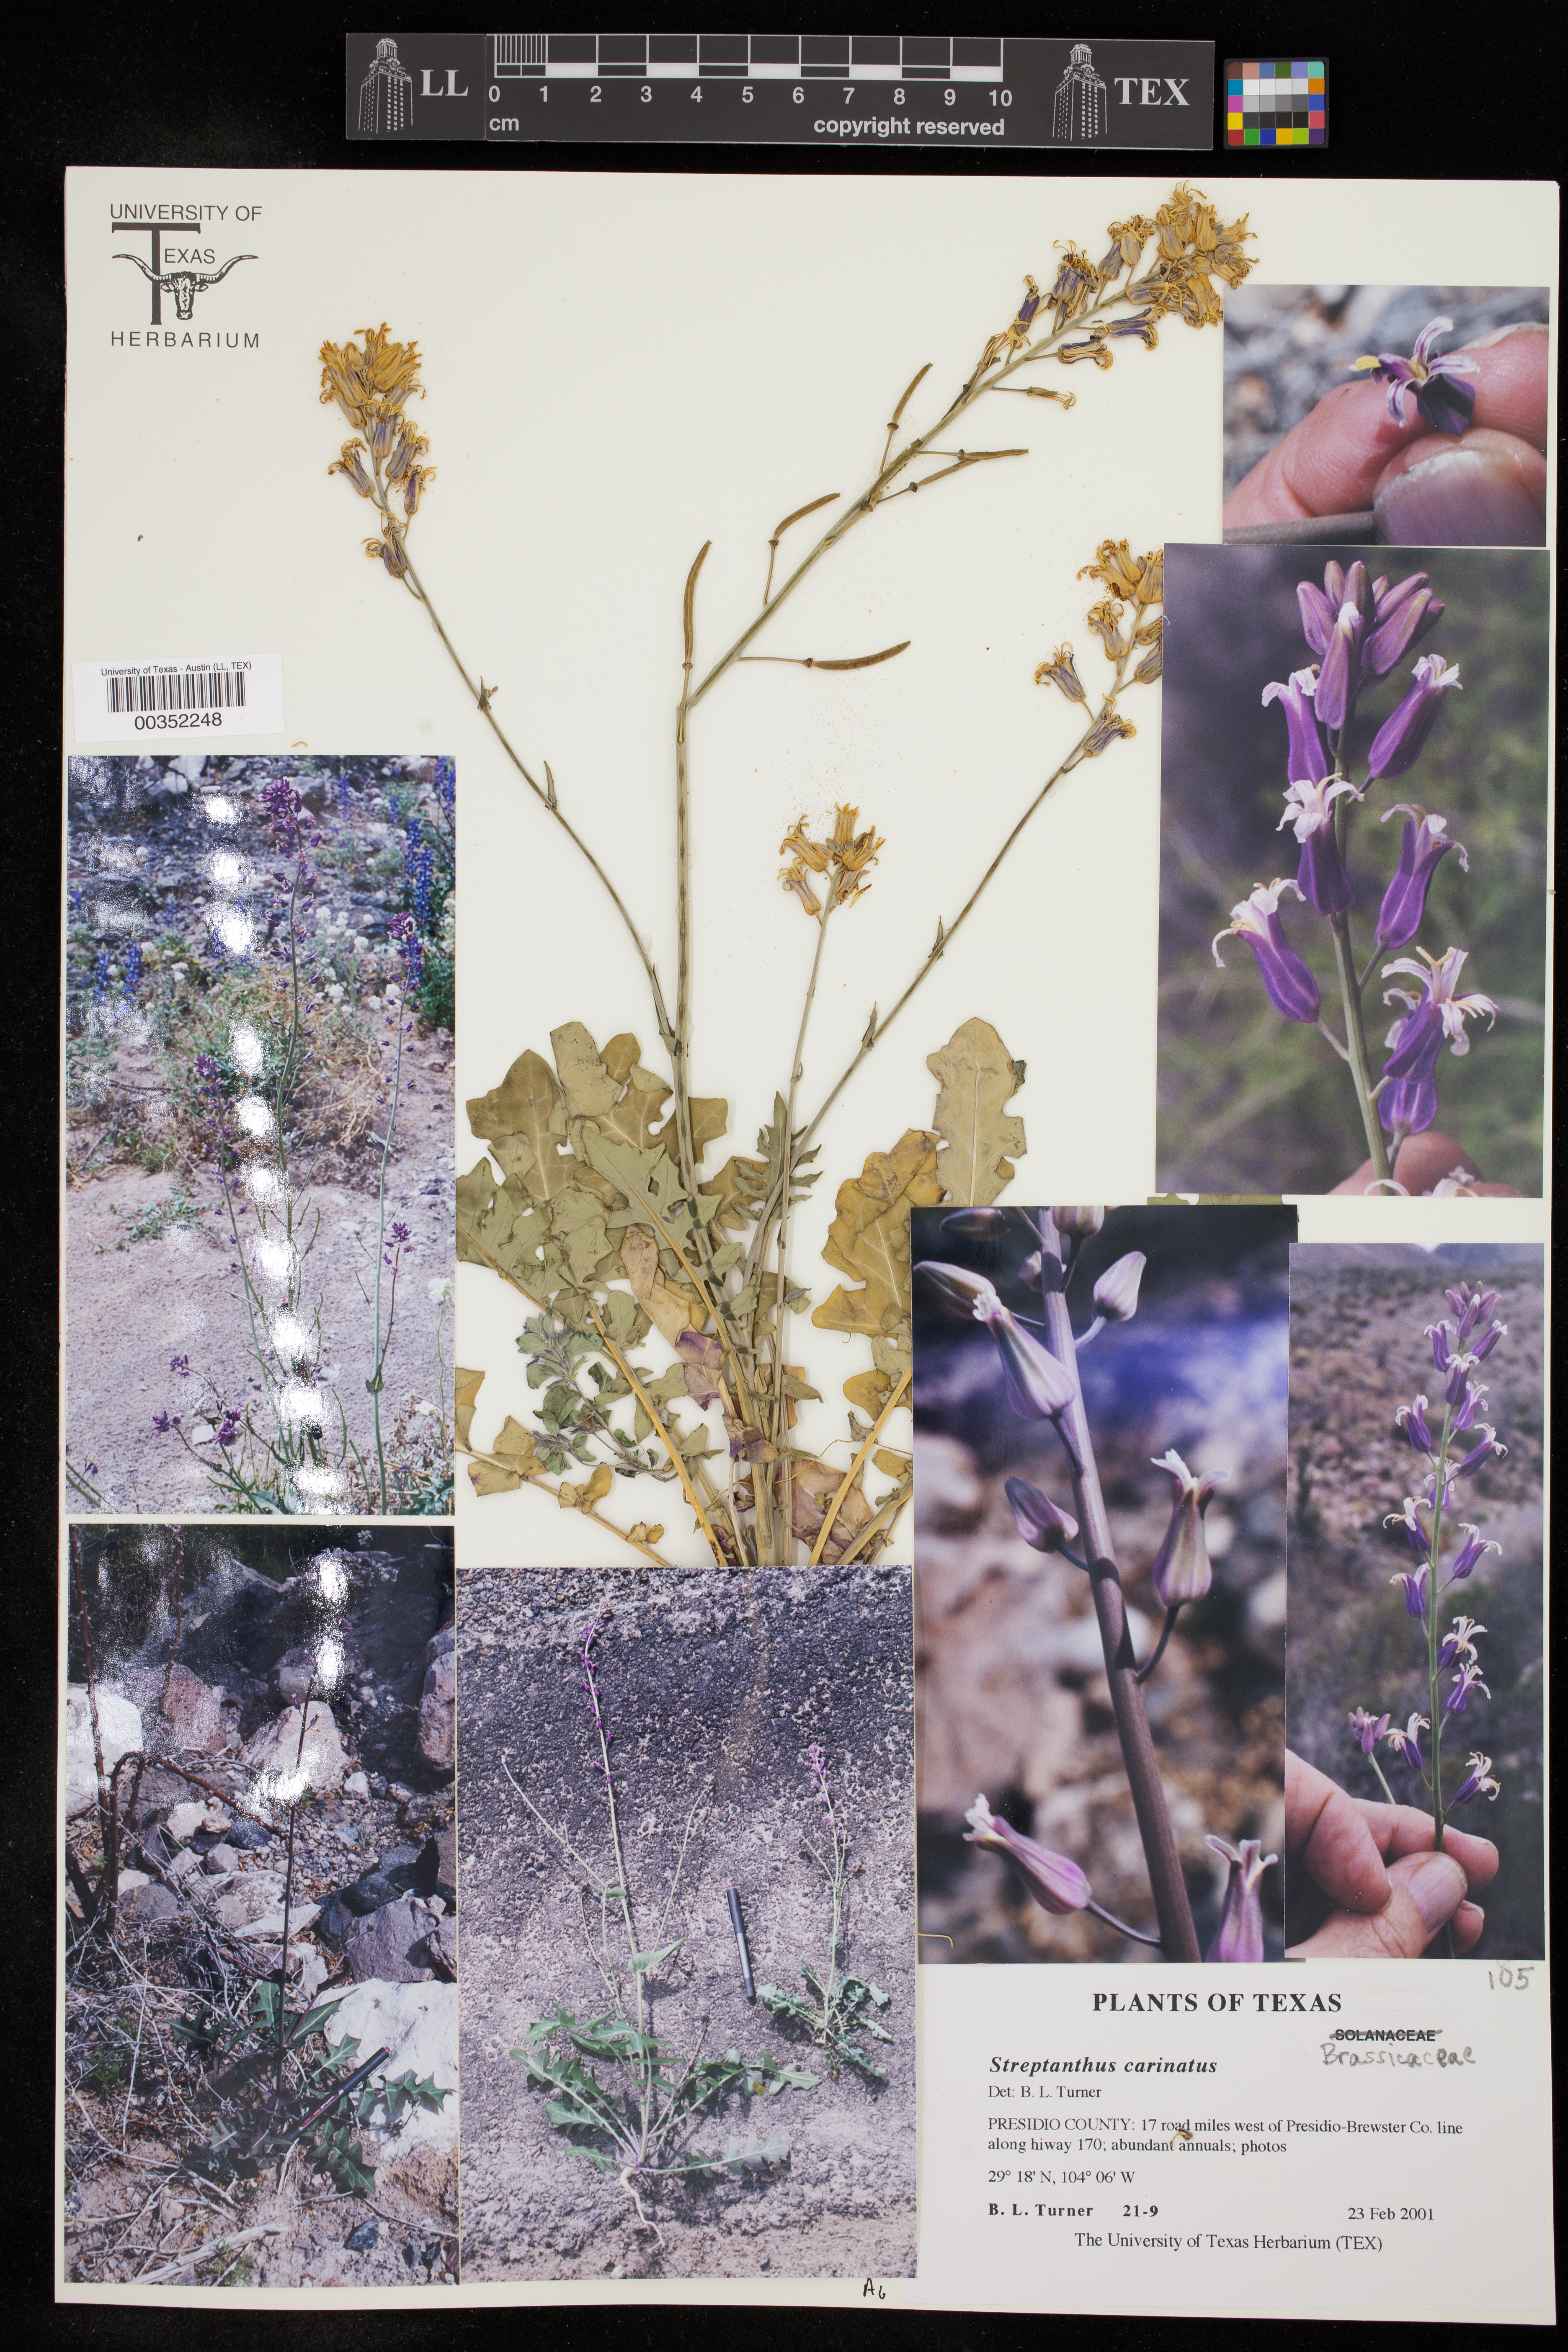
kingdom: Plantae
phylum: Tracheophyta
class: Magnoliopsida
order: Brassicales
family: Brassicaceae
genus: Streptanthus
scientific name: Streptanthus carinatus
